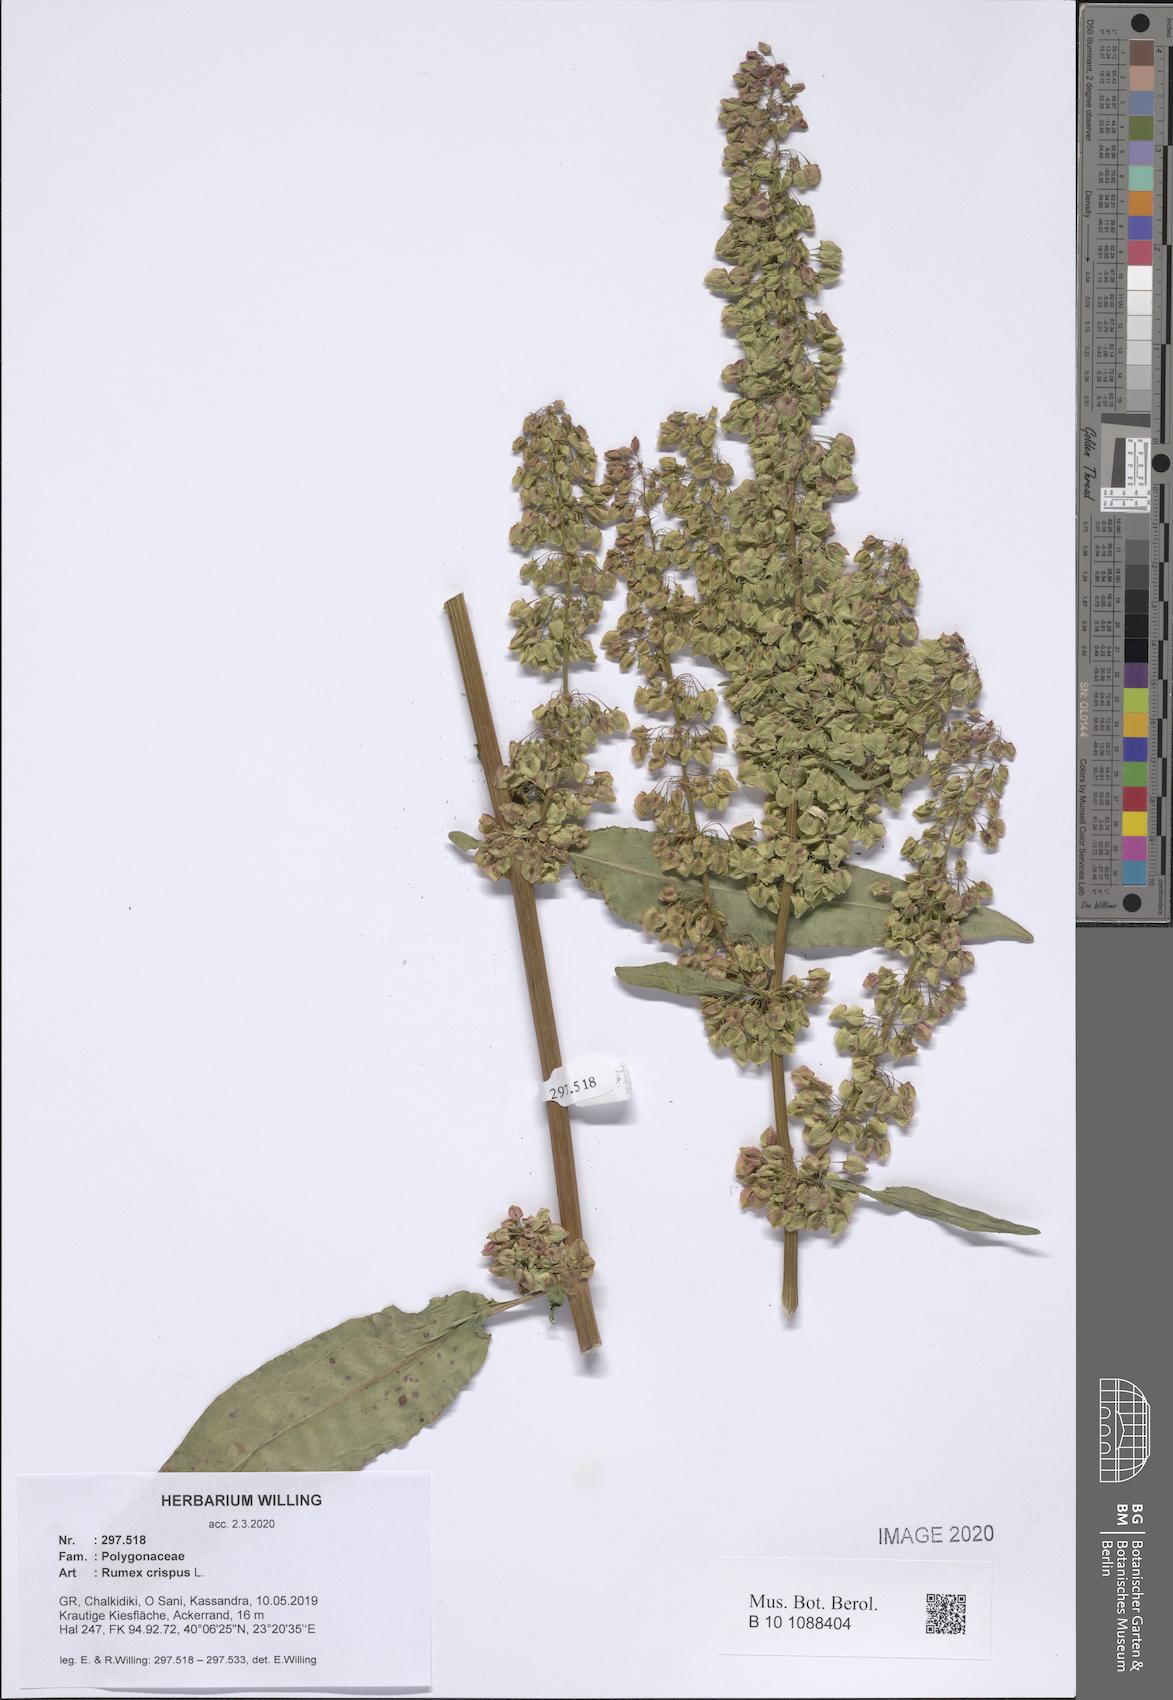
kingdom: Plantae
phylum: Tracheophyta
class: Magnoliopsida
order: Caryophyllales
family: Polygonaceae
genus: Rumex
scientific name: Rumex crispus
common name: Curled dock
